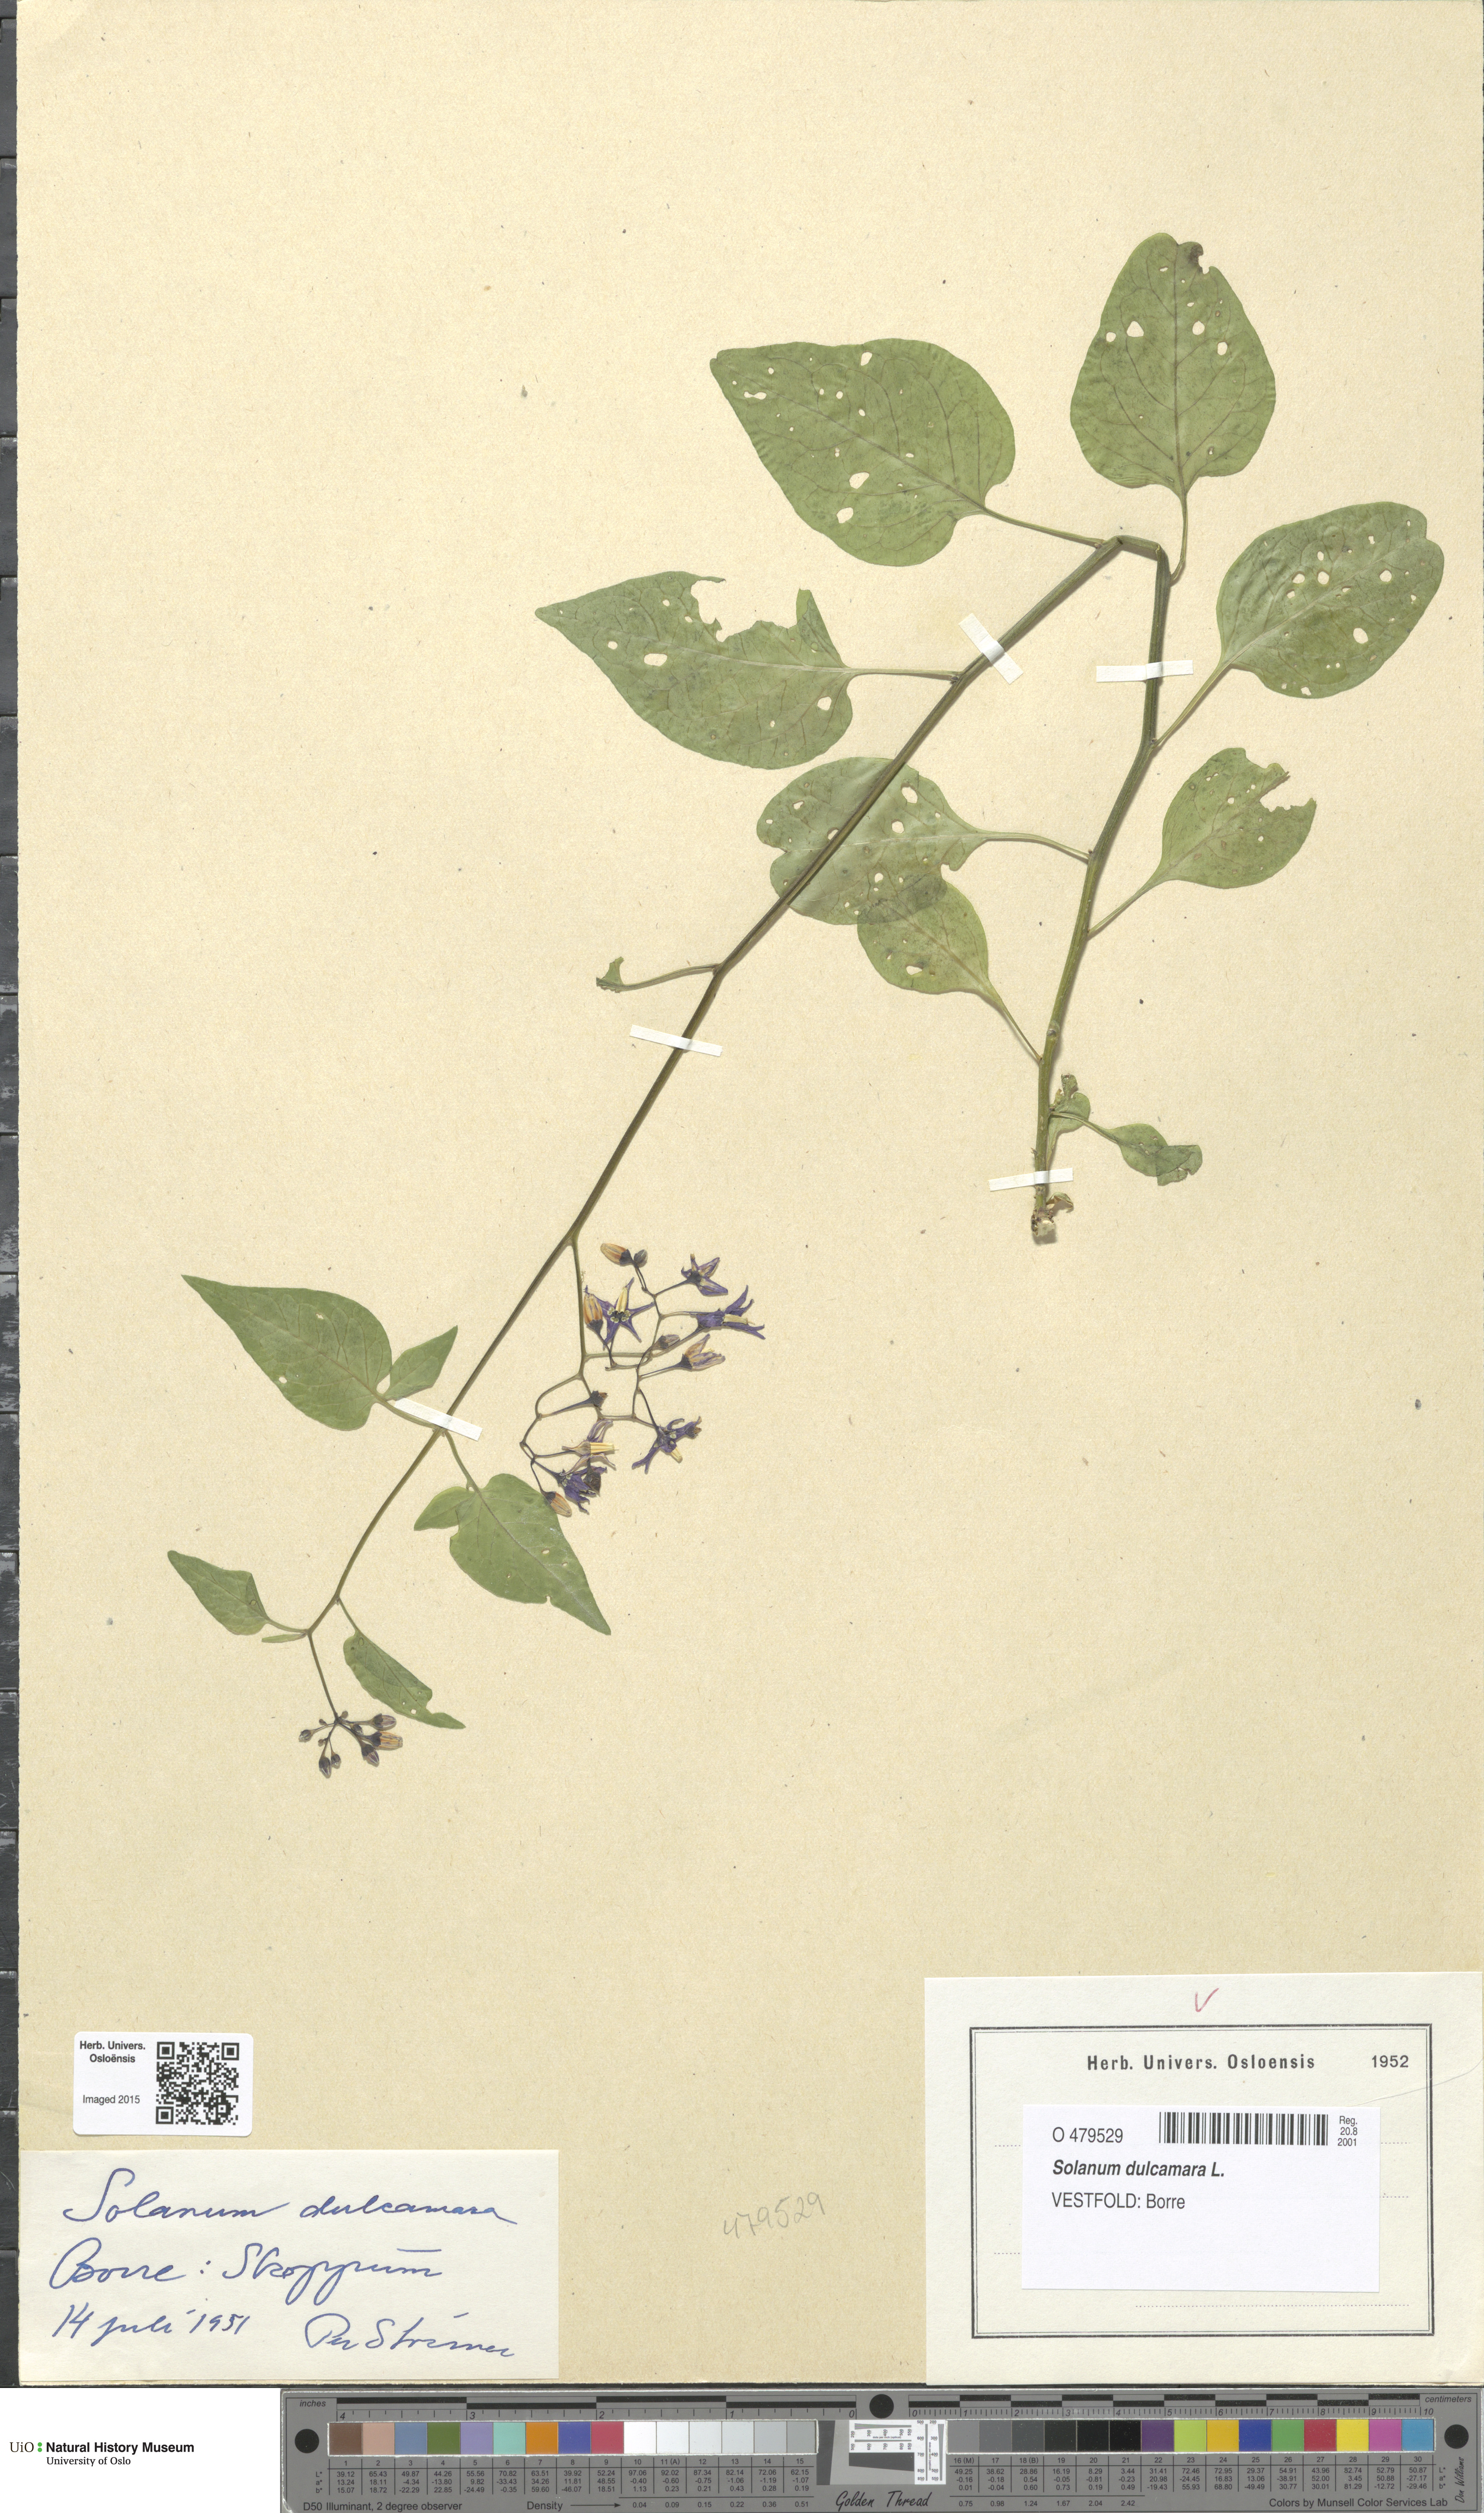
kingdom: Plantae
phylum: Tracheophyta
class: Magnoliopsida
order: Solanales
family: Solanaceae
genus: Solanum
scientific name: Solanum dulcamara
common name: Climbing nightshade
